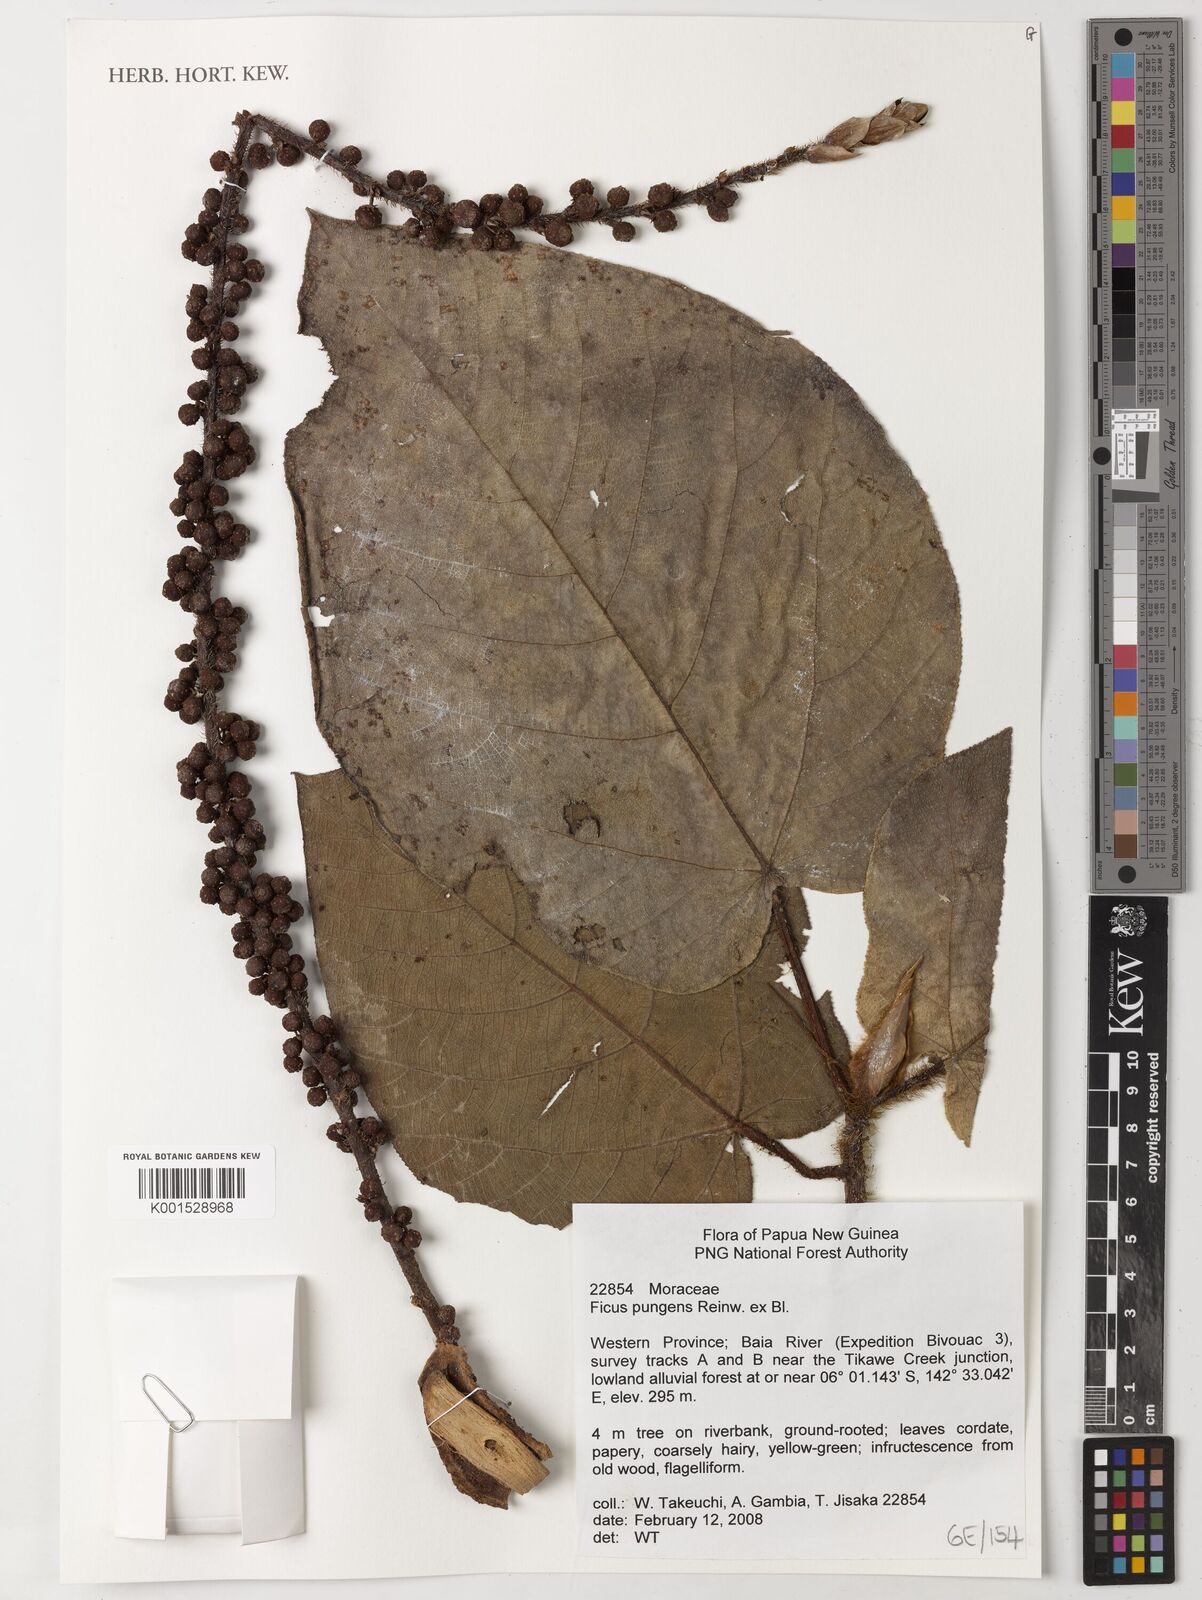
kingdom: Plantae
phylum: Tracheophyta
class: Magnoliopsida
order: Rosales
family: Moraceae
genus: Ficus
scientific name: Ficus pungens
